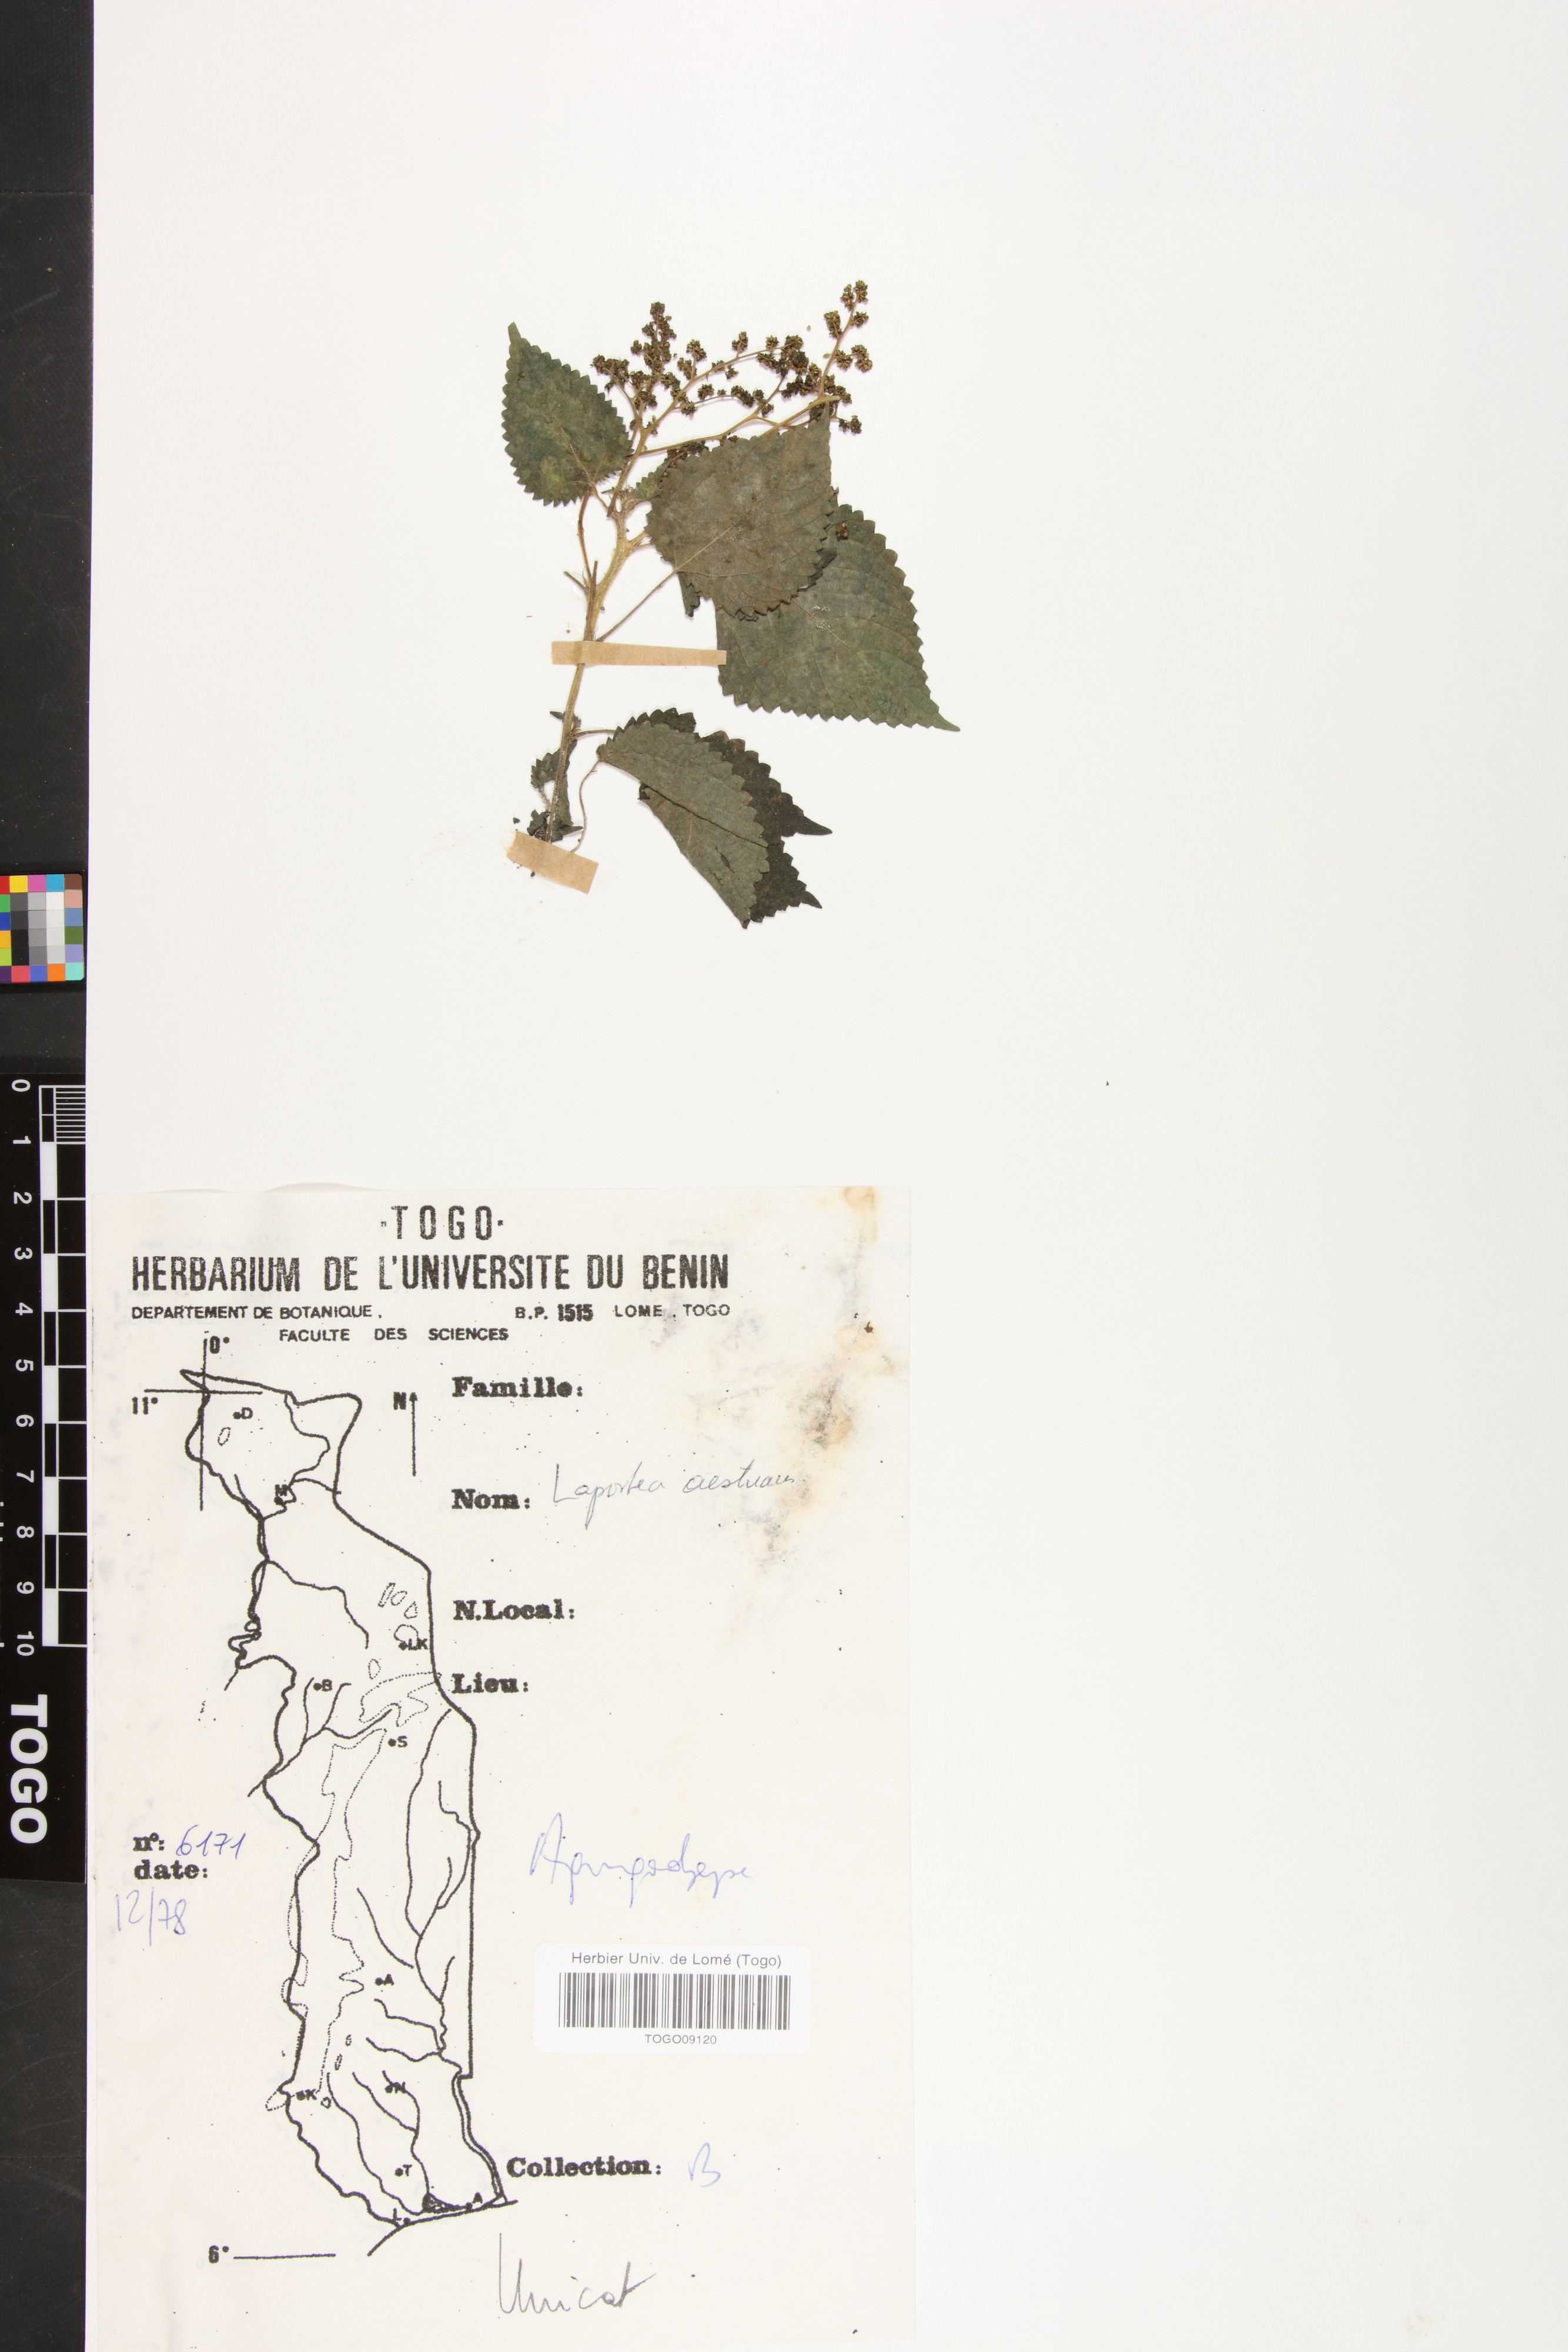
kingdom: Plantae
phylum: Tracheophyta
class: Magnoliopsida
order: Rosales
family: Urticaceae
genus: Laportea
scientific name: Laportea aestuans
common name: West indian woodnettle
